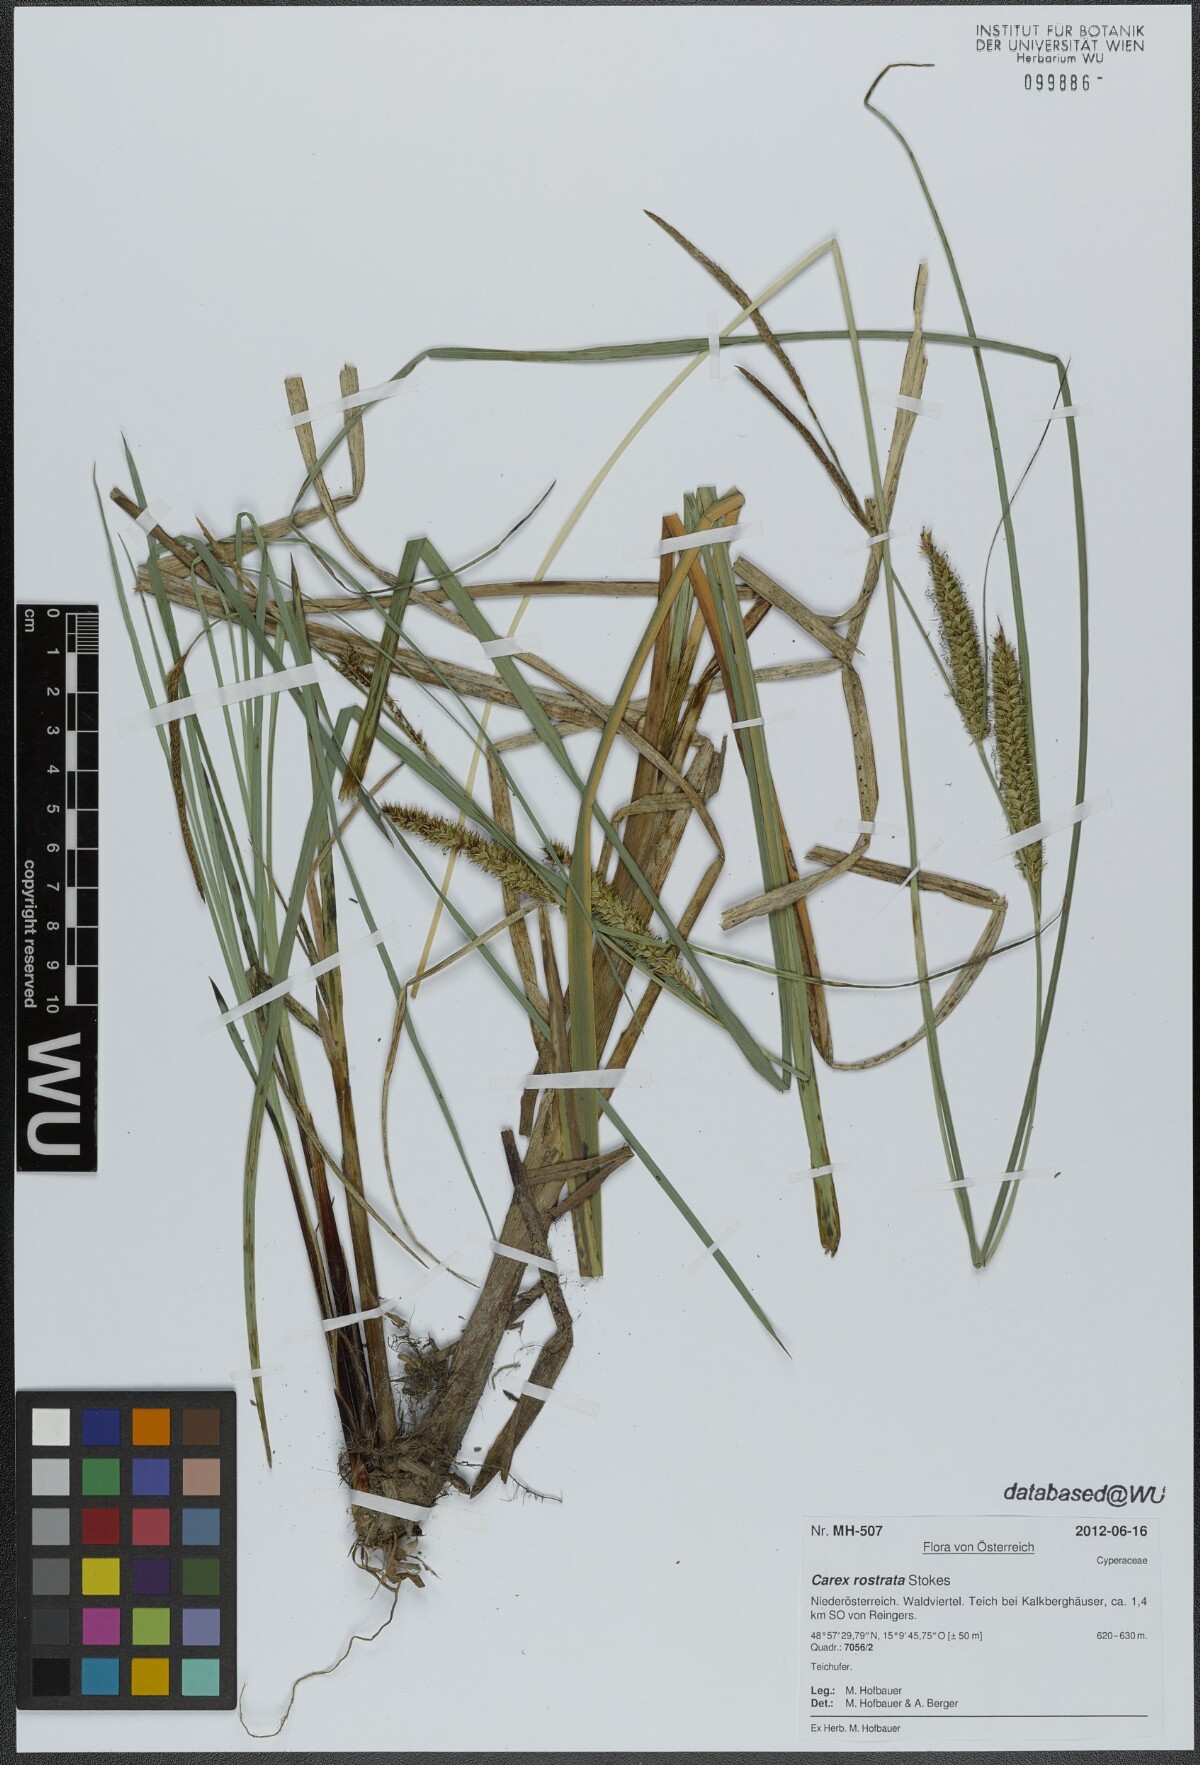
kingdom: Plantae
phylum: Tracheophyta
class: Liliopsida
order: Poales
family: Cyperaceae
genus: Carex
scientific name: Carex rostrata
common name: Bottle sedge
